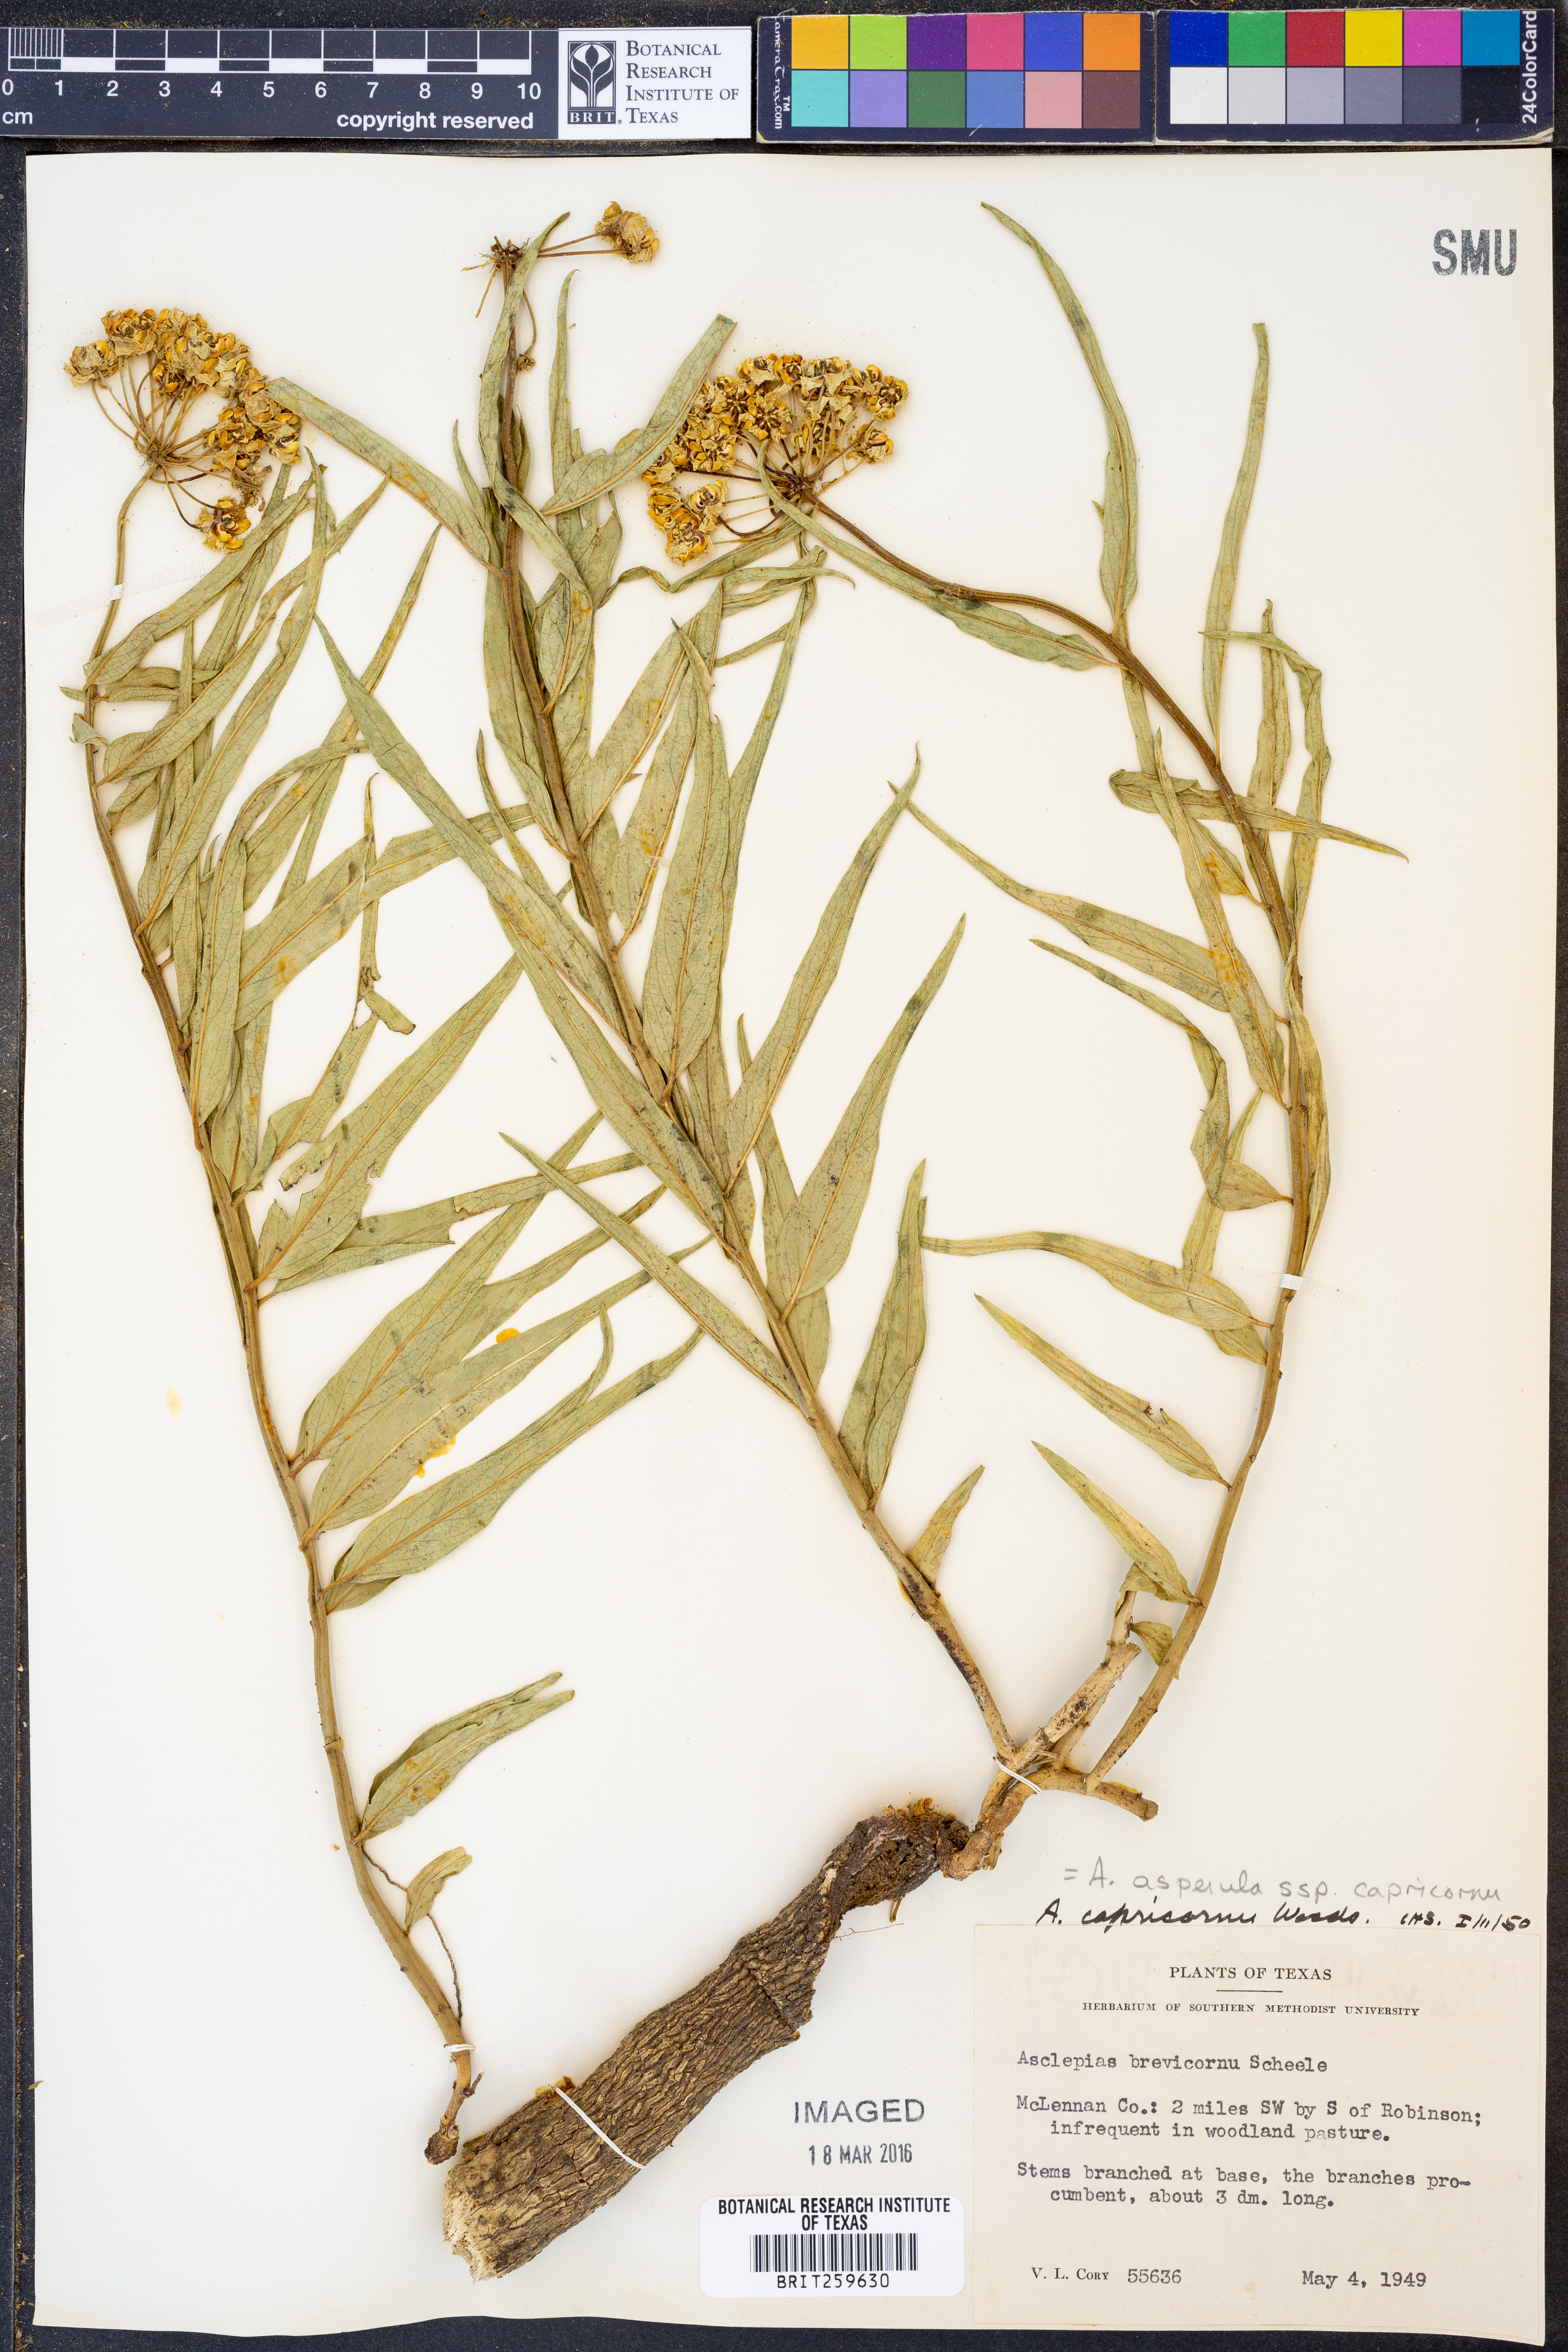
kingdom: Plantae
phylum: Tracheophyta
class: Magnoliopsida
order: Gentianales
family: Apocynaceae
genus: Asclepias
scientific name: Asclepias asperula
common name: Antelope horns
